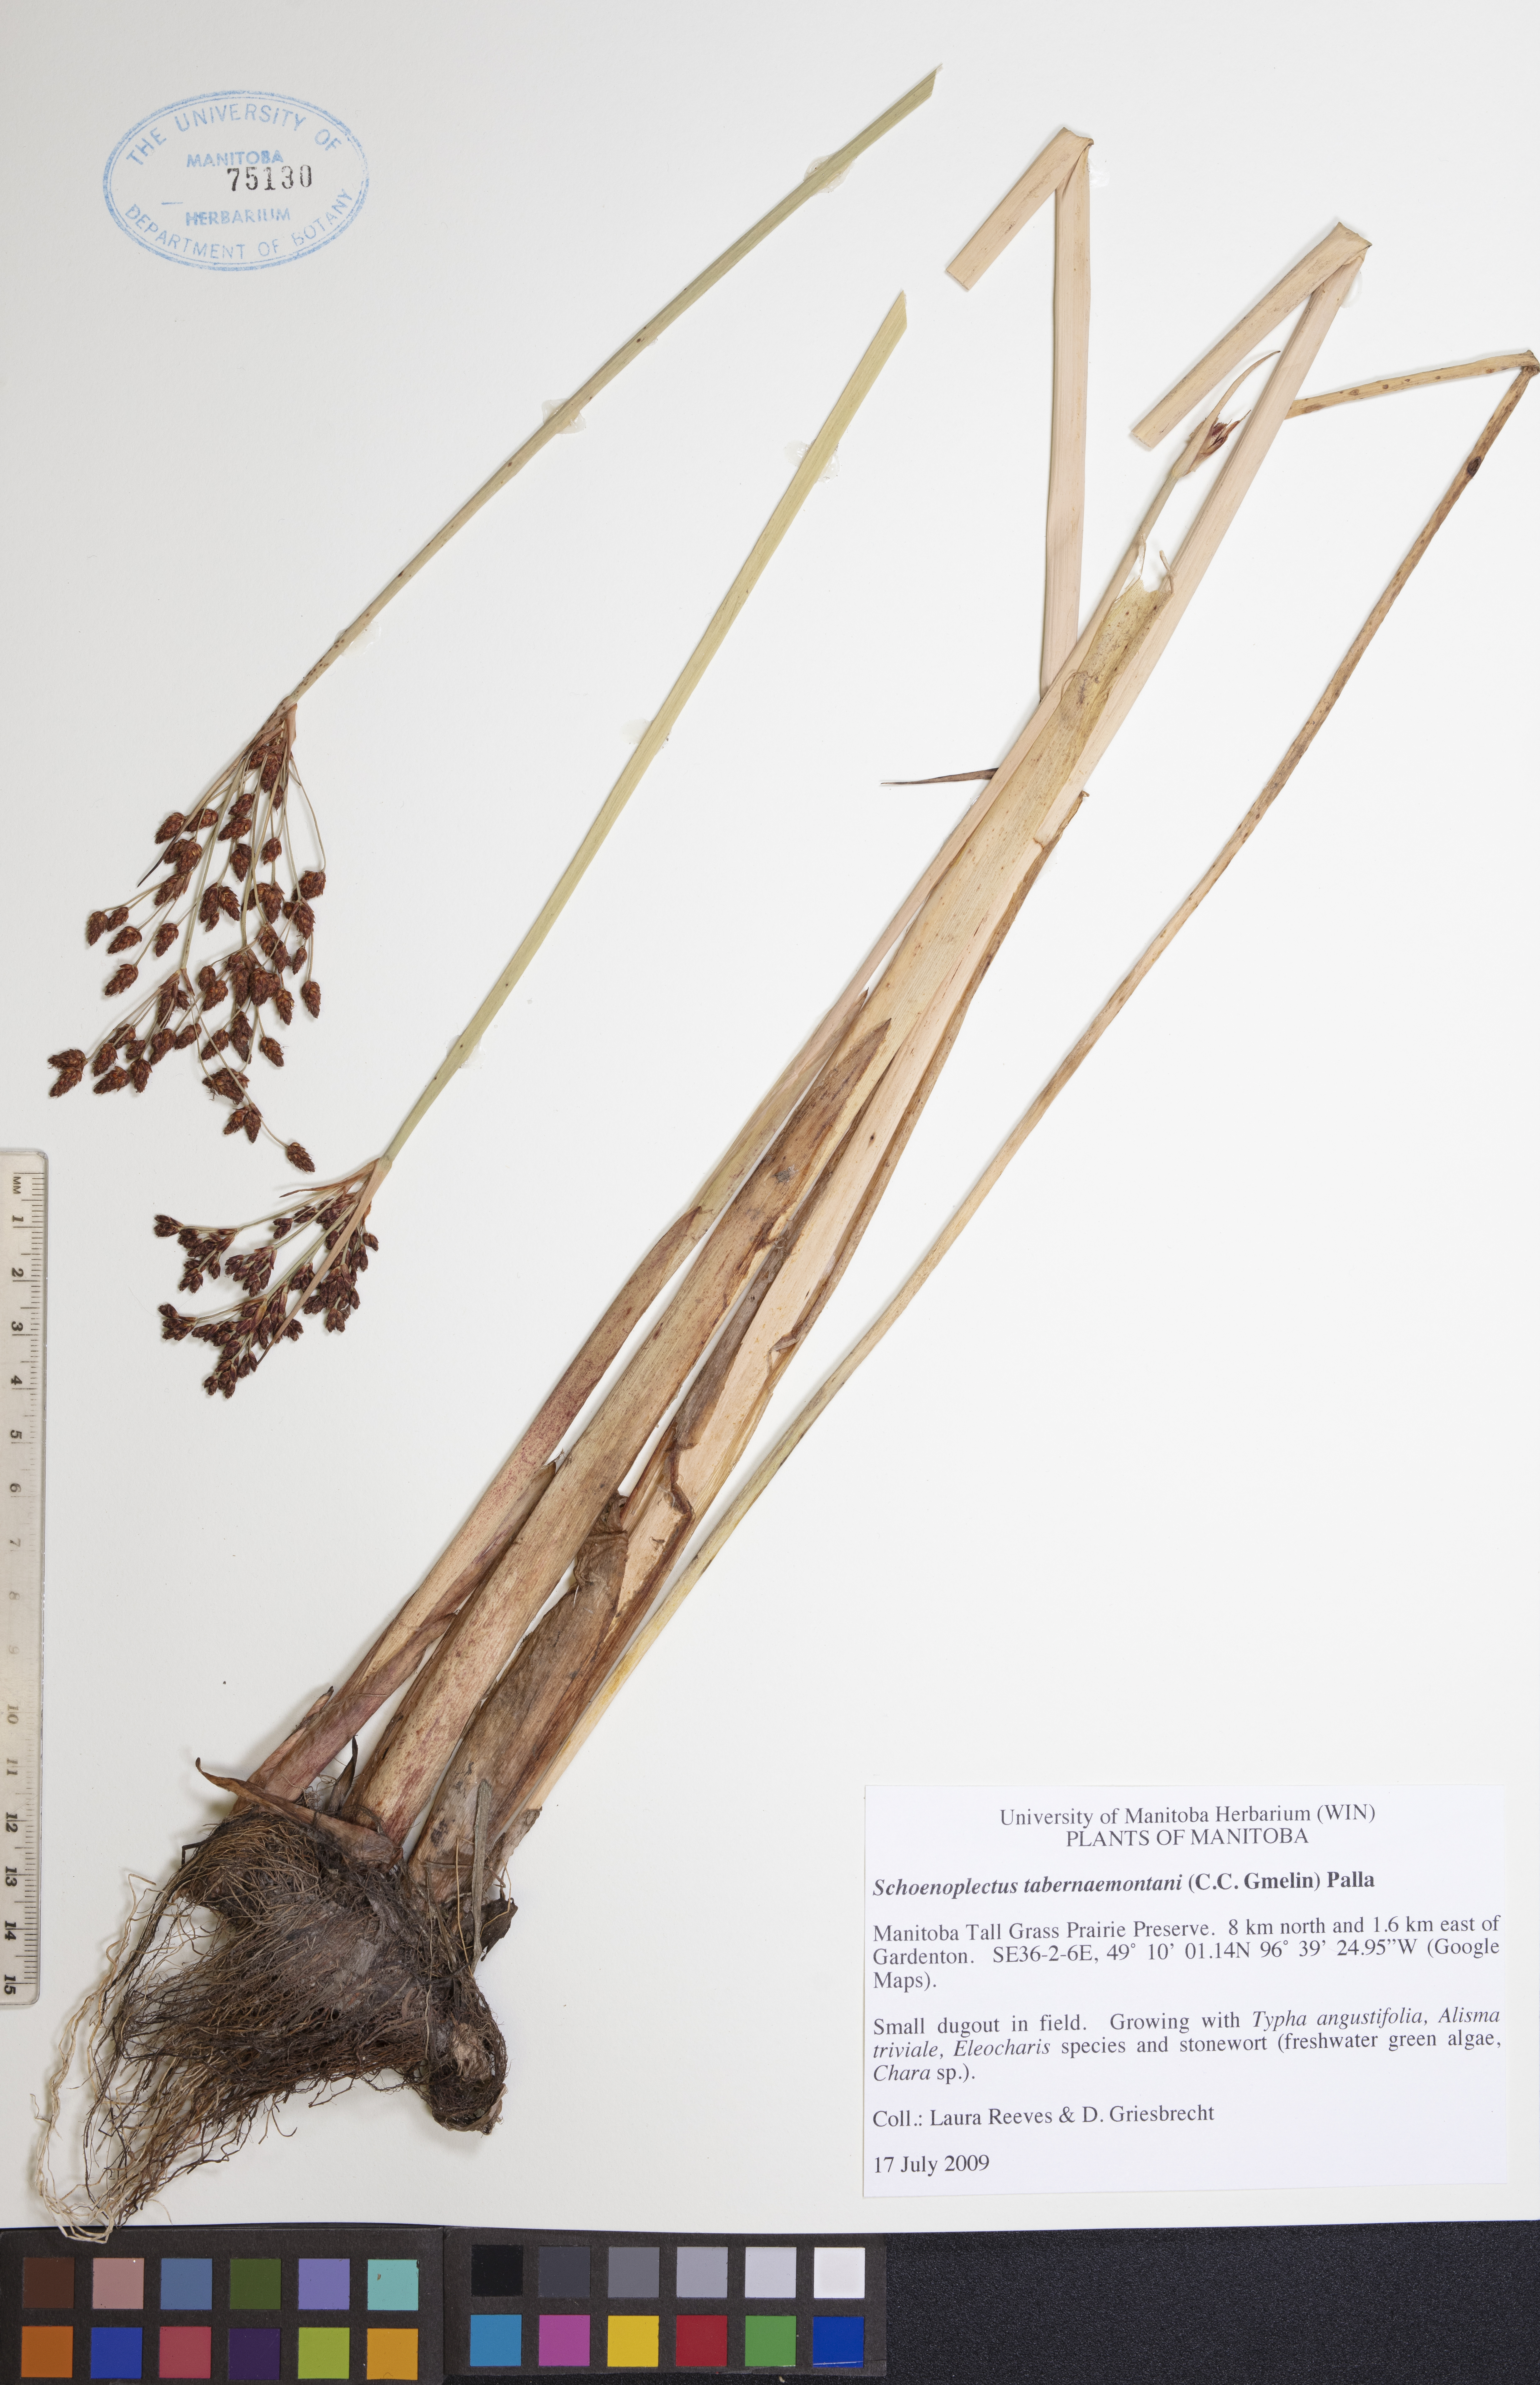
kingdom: Plantae
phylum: Tracheophyta
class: Liliopsida
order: Poales
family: Cyperaceae
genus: Schoenoplectus
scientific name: Schoenoplectus tabernaemontani
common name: Grey club-rush
